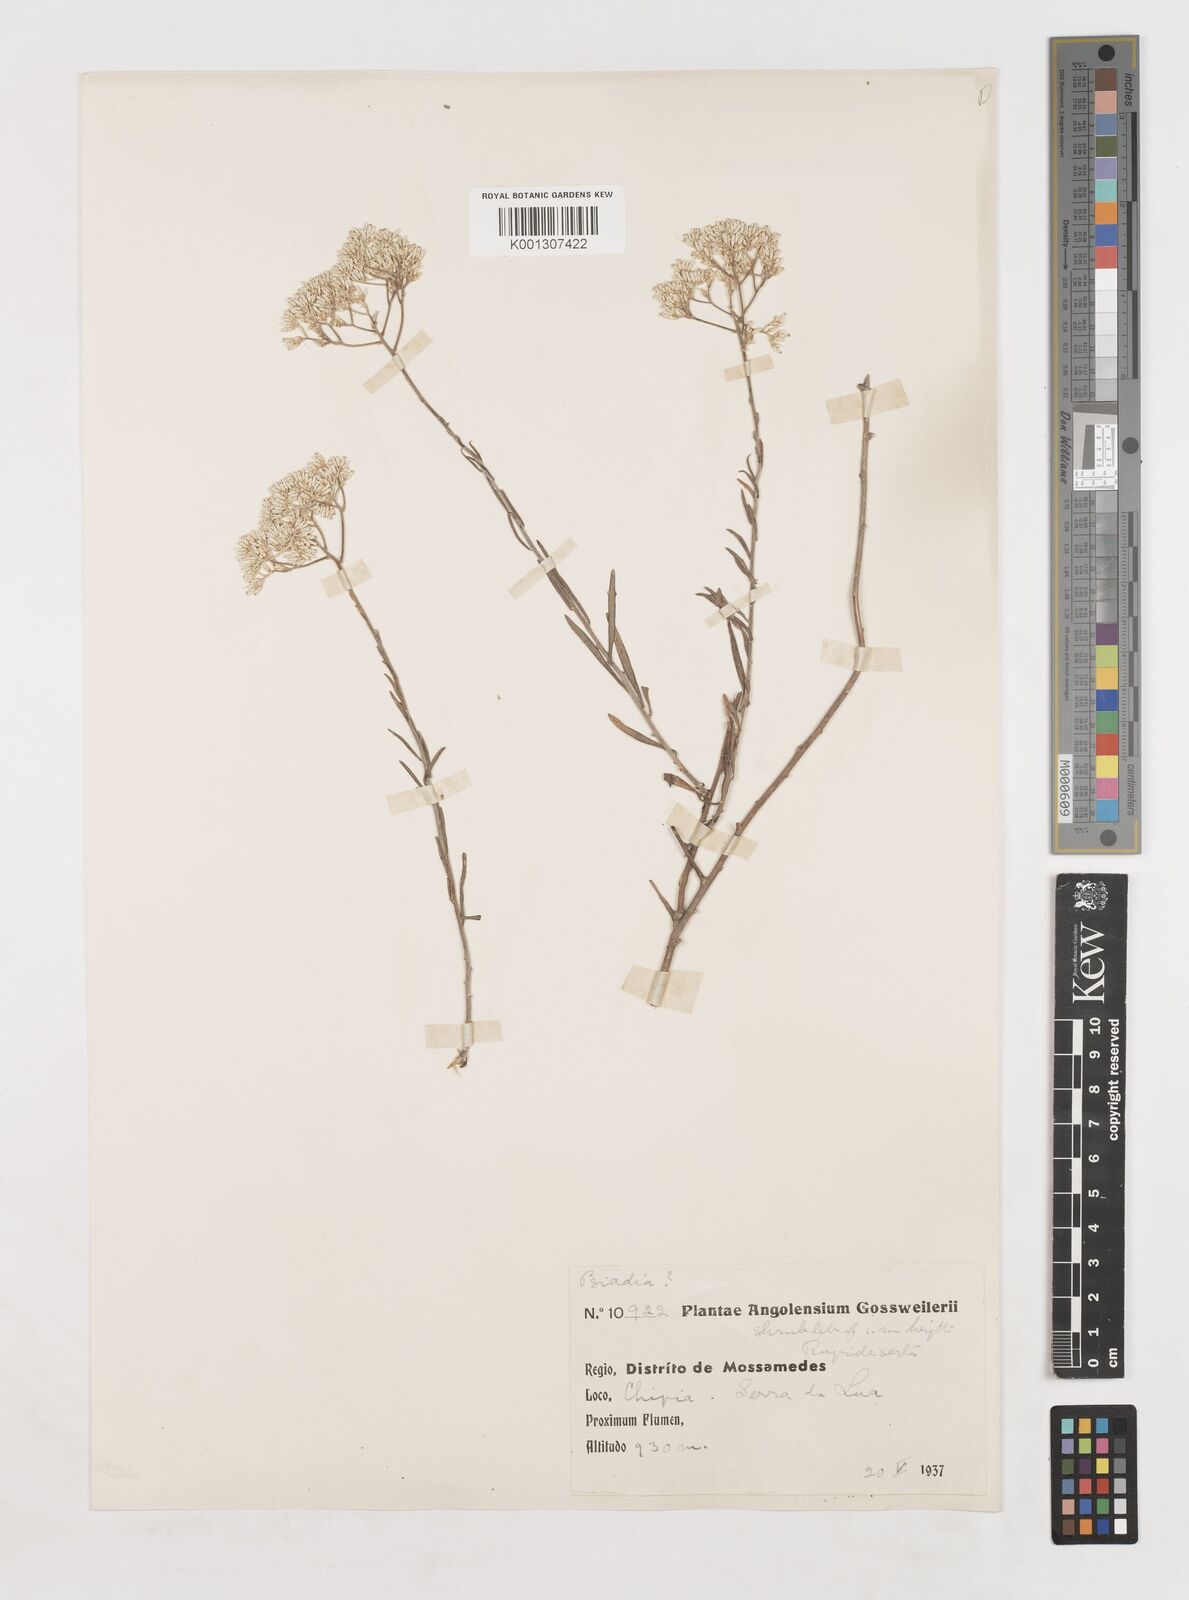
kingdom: Plantae
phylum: Tracheophyta
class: Magnoliopsida
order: Asterales
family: Asteraceae
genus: Helichrysum
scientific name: Helichrysum benguellense
